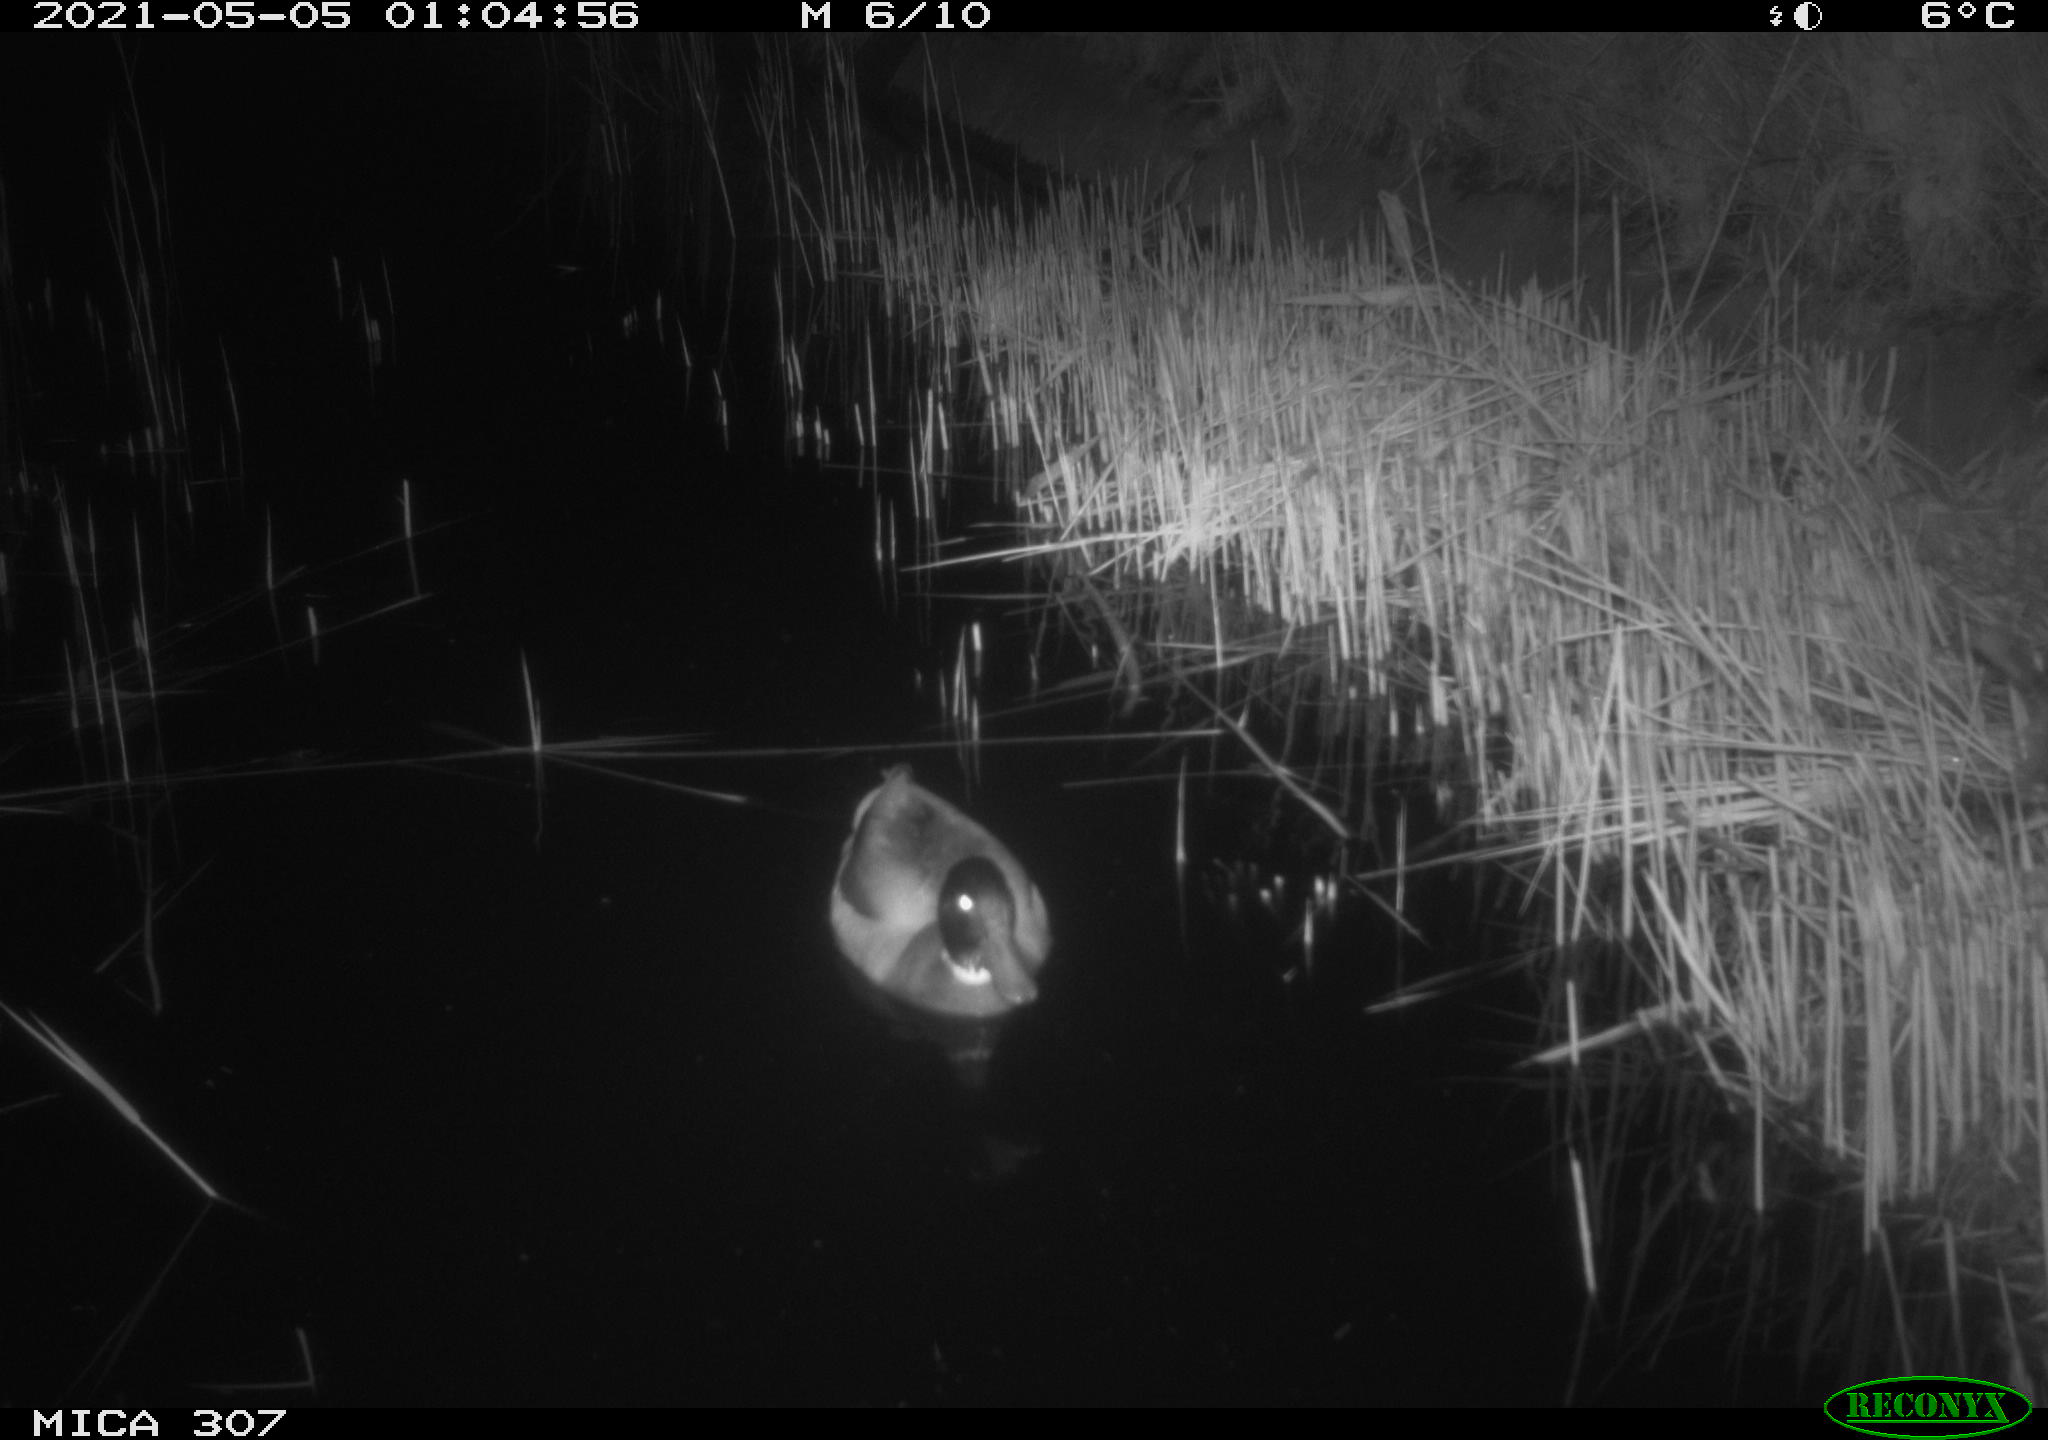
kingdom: Animalia
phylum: Chordata
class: Aves
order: Gruiformes
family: Rallidae
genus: Gallinula
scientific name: Gallinula chloropus
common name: Common moorhen
